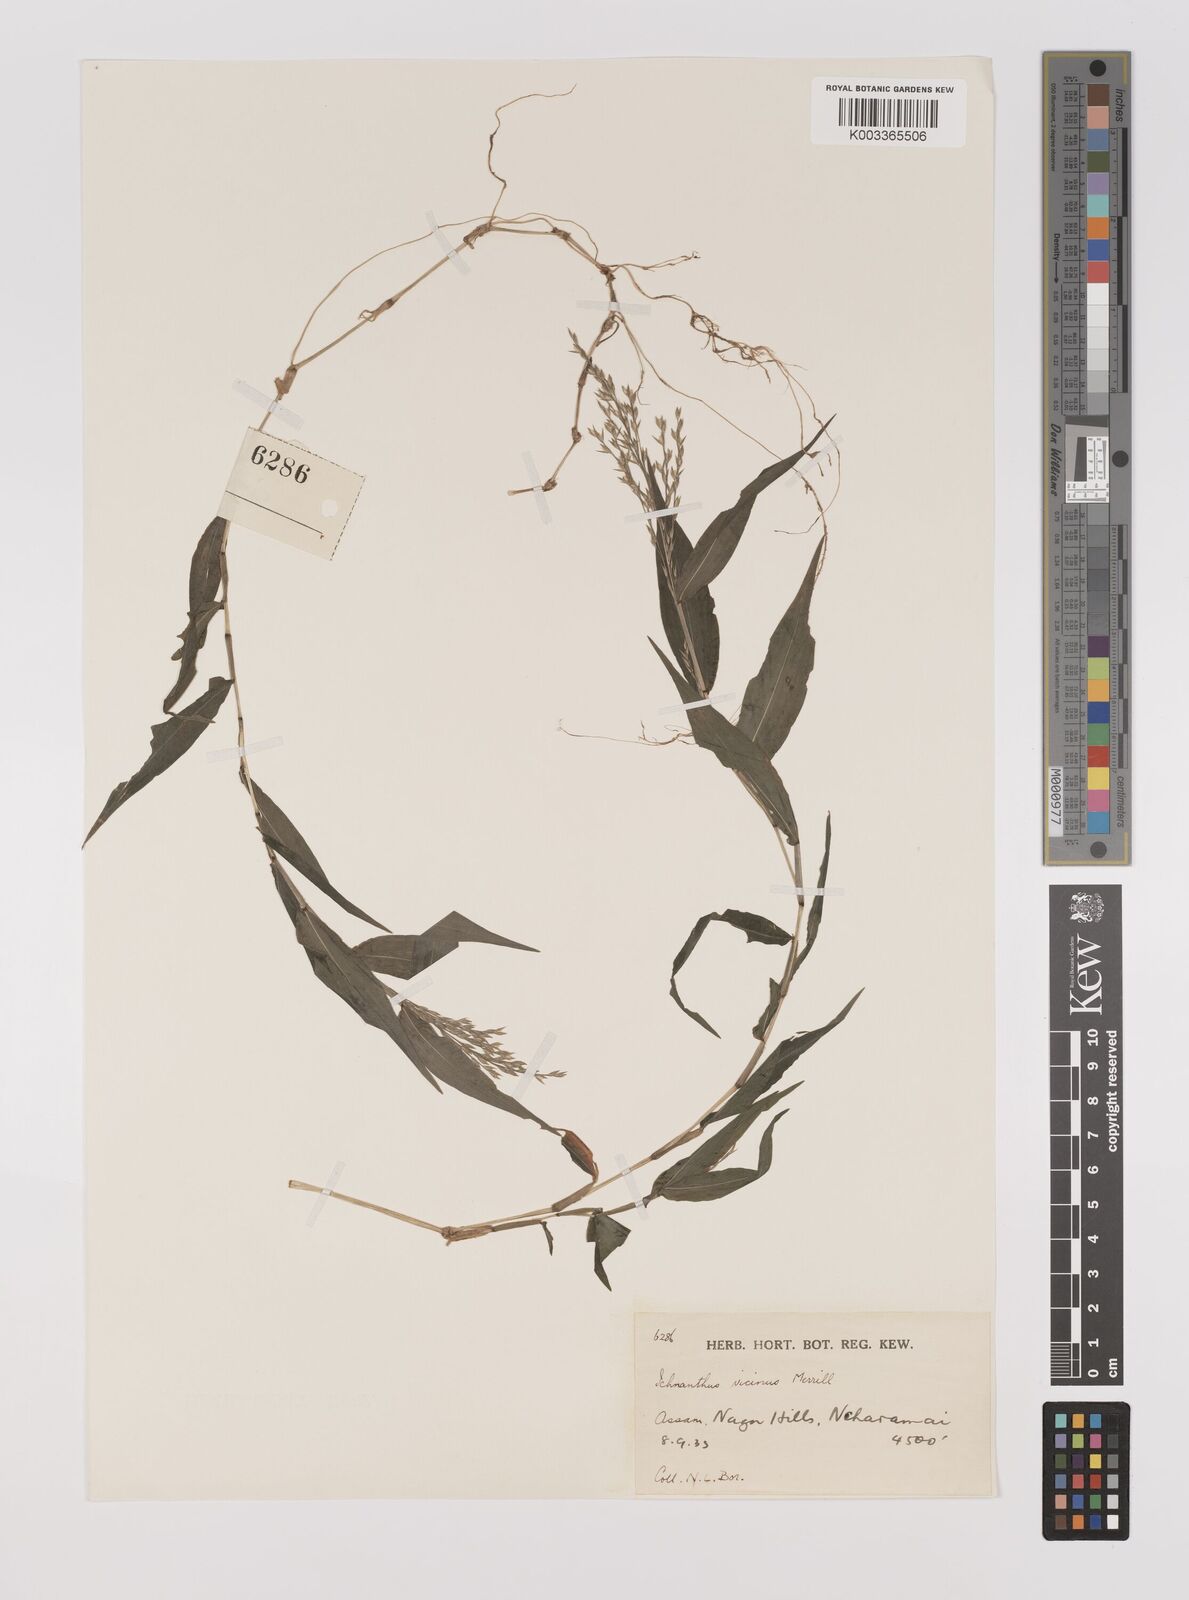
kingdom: Plantae
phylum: Tracheophyta
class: Liliopsida
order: Poales
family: Poaceae
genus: Ichnanthus
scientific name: Ichnanthus pallens
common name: Water grass
